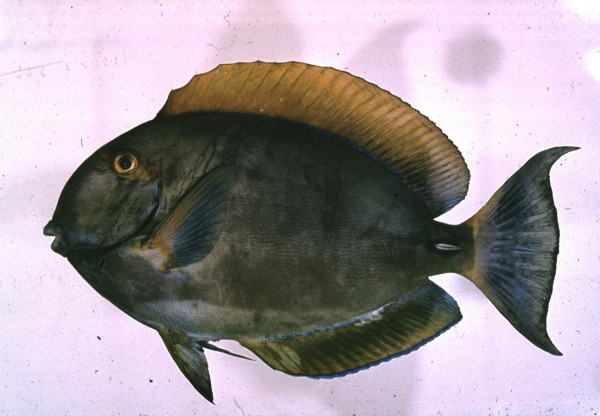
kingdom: Animalia
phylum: Chordata
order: Perciformes
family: Acanthuridae
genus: Acanthurus
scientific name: Acanthurus dussumieri
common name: Dussumier's surgeonfish
